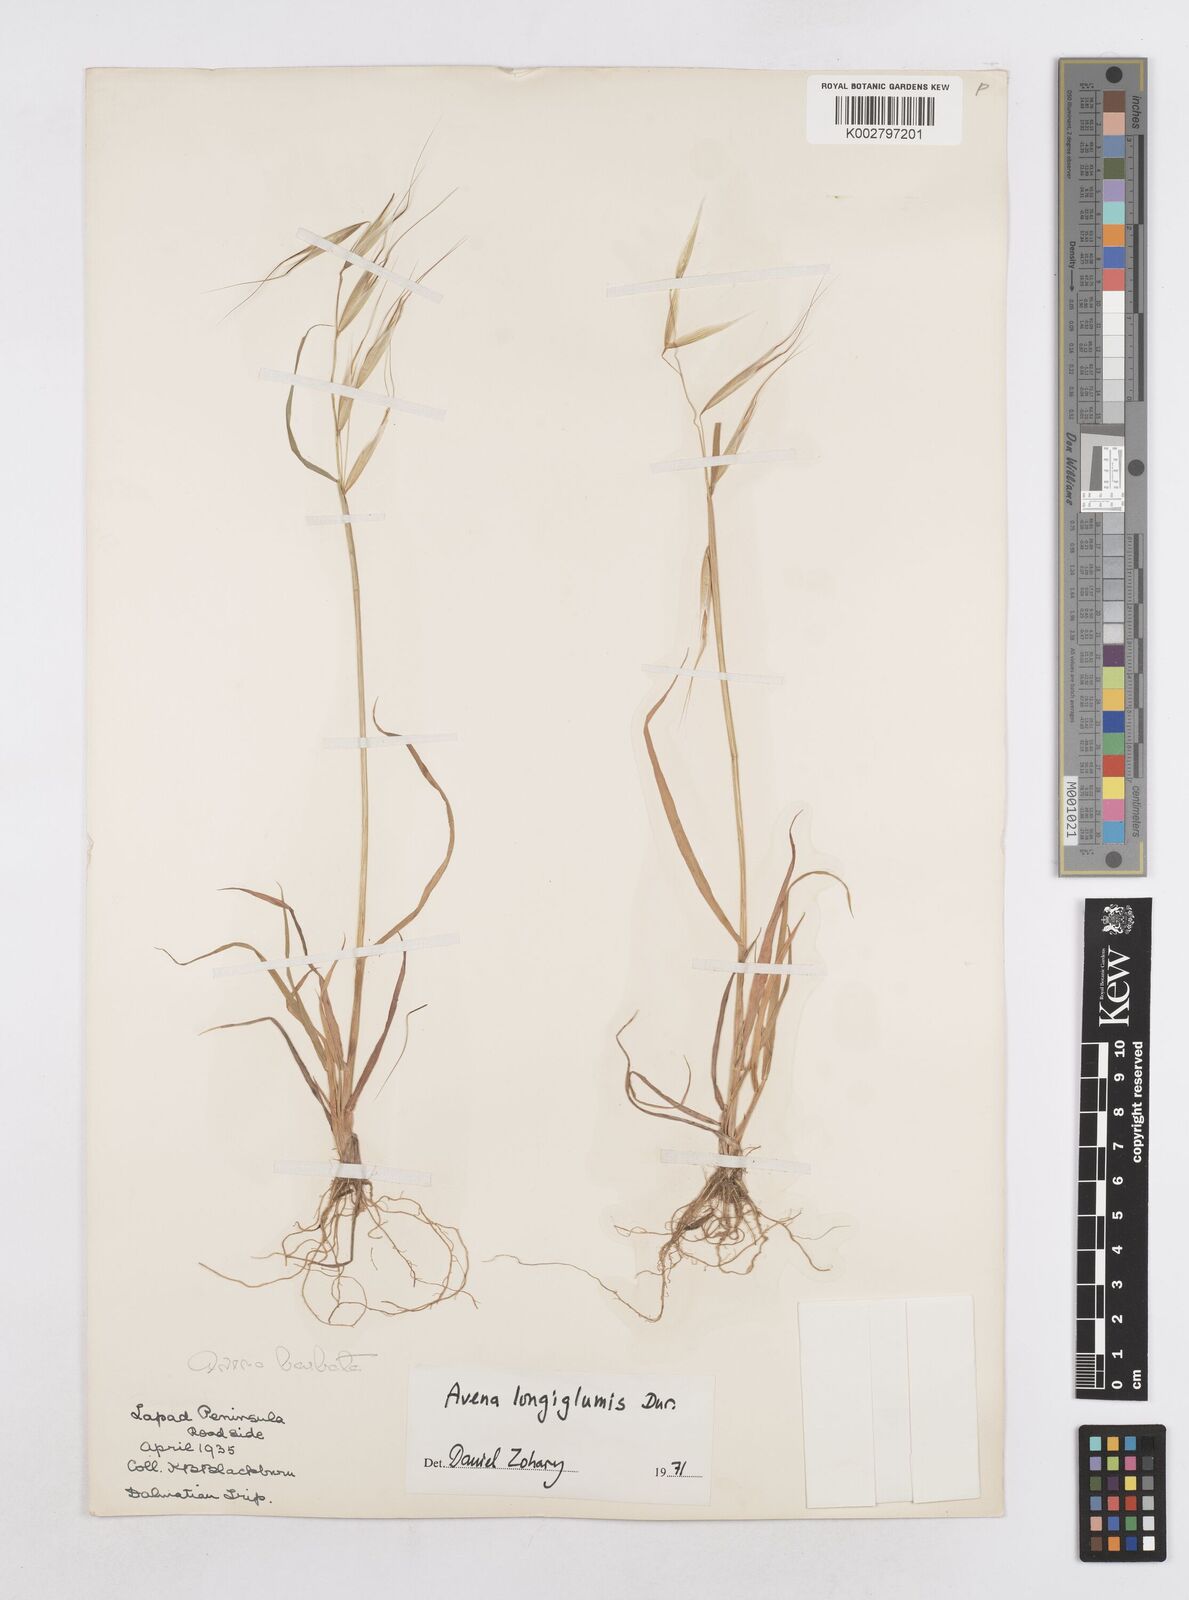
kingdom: Plantae
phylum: Tracheophyta
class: Liliopsida
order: Poales
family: Poaceae
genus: Avena
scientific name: Avena longiglumis
